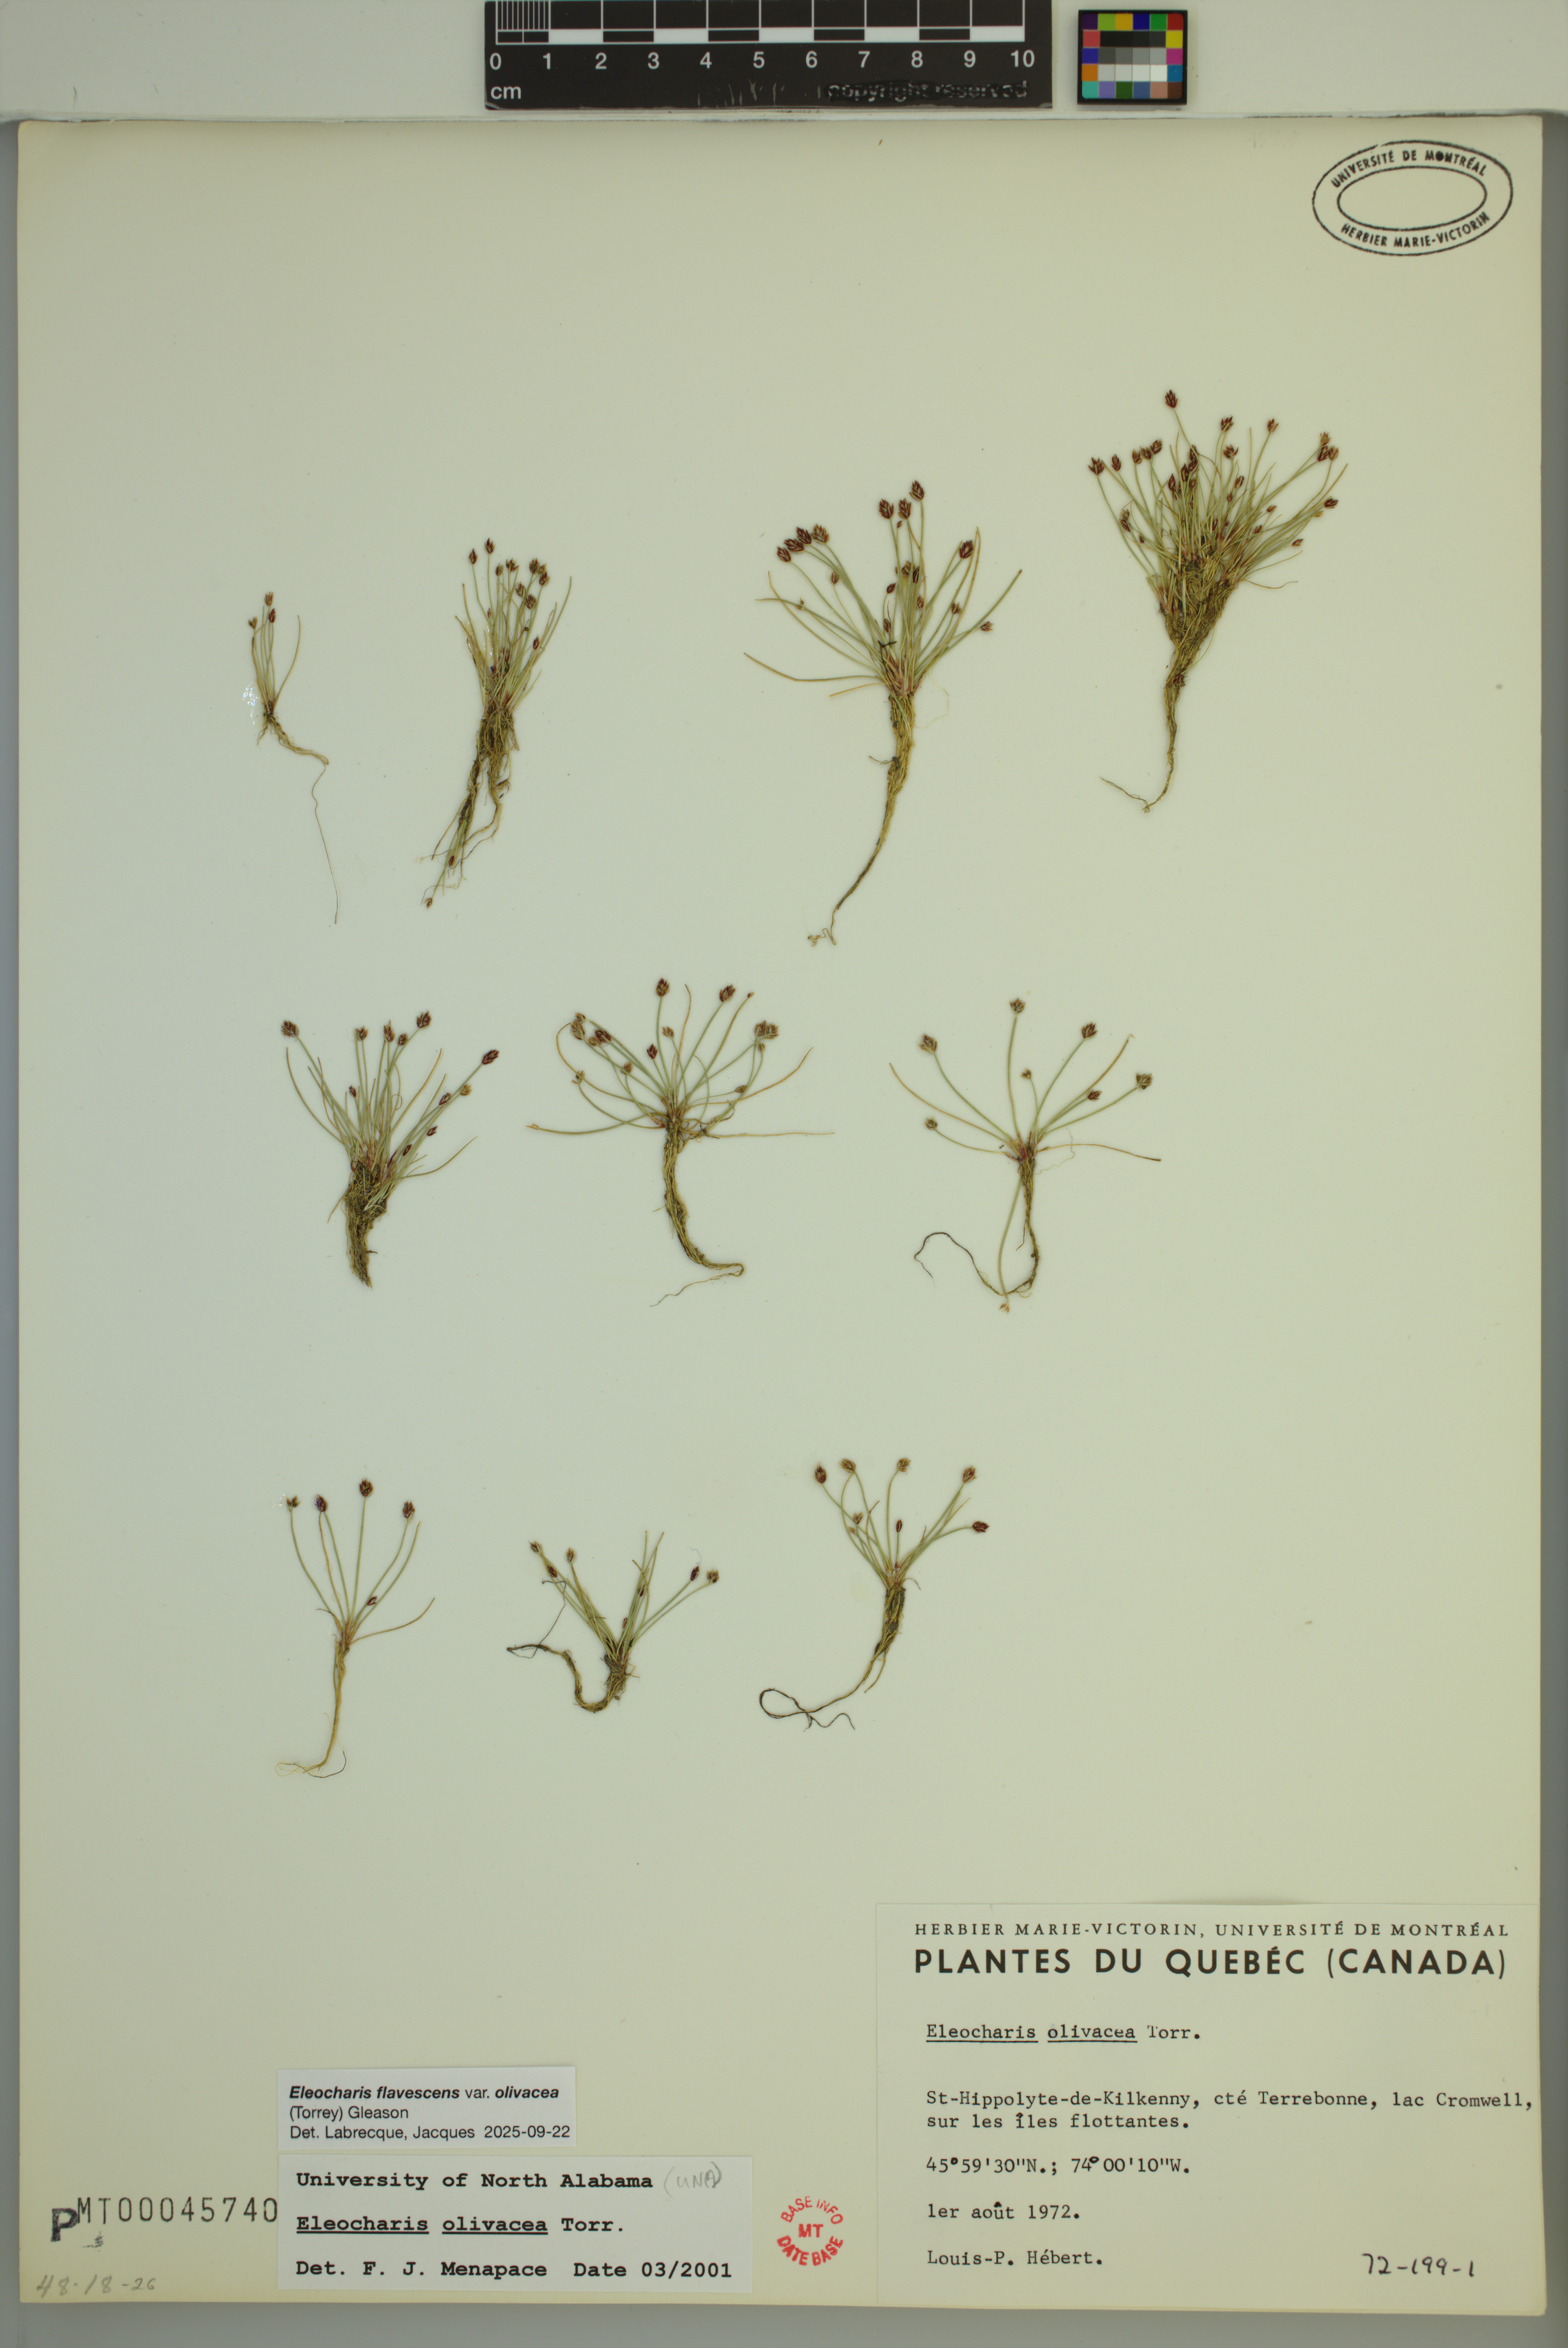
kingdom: Plantae
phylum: Tracheophyta
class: Liliopsida
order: Poales
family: Cyperaceae
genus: Eleocharis
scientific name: Eleocharis flavescens
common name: Yellow spikerush
